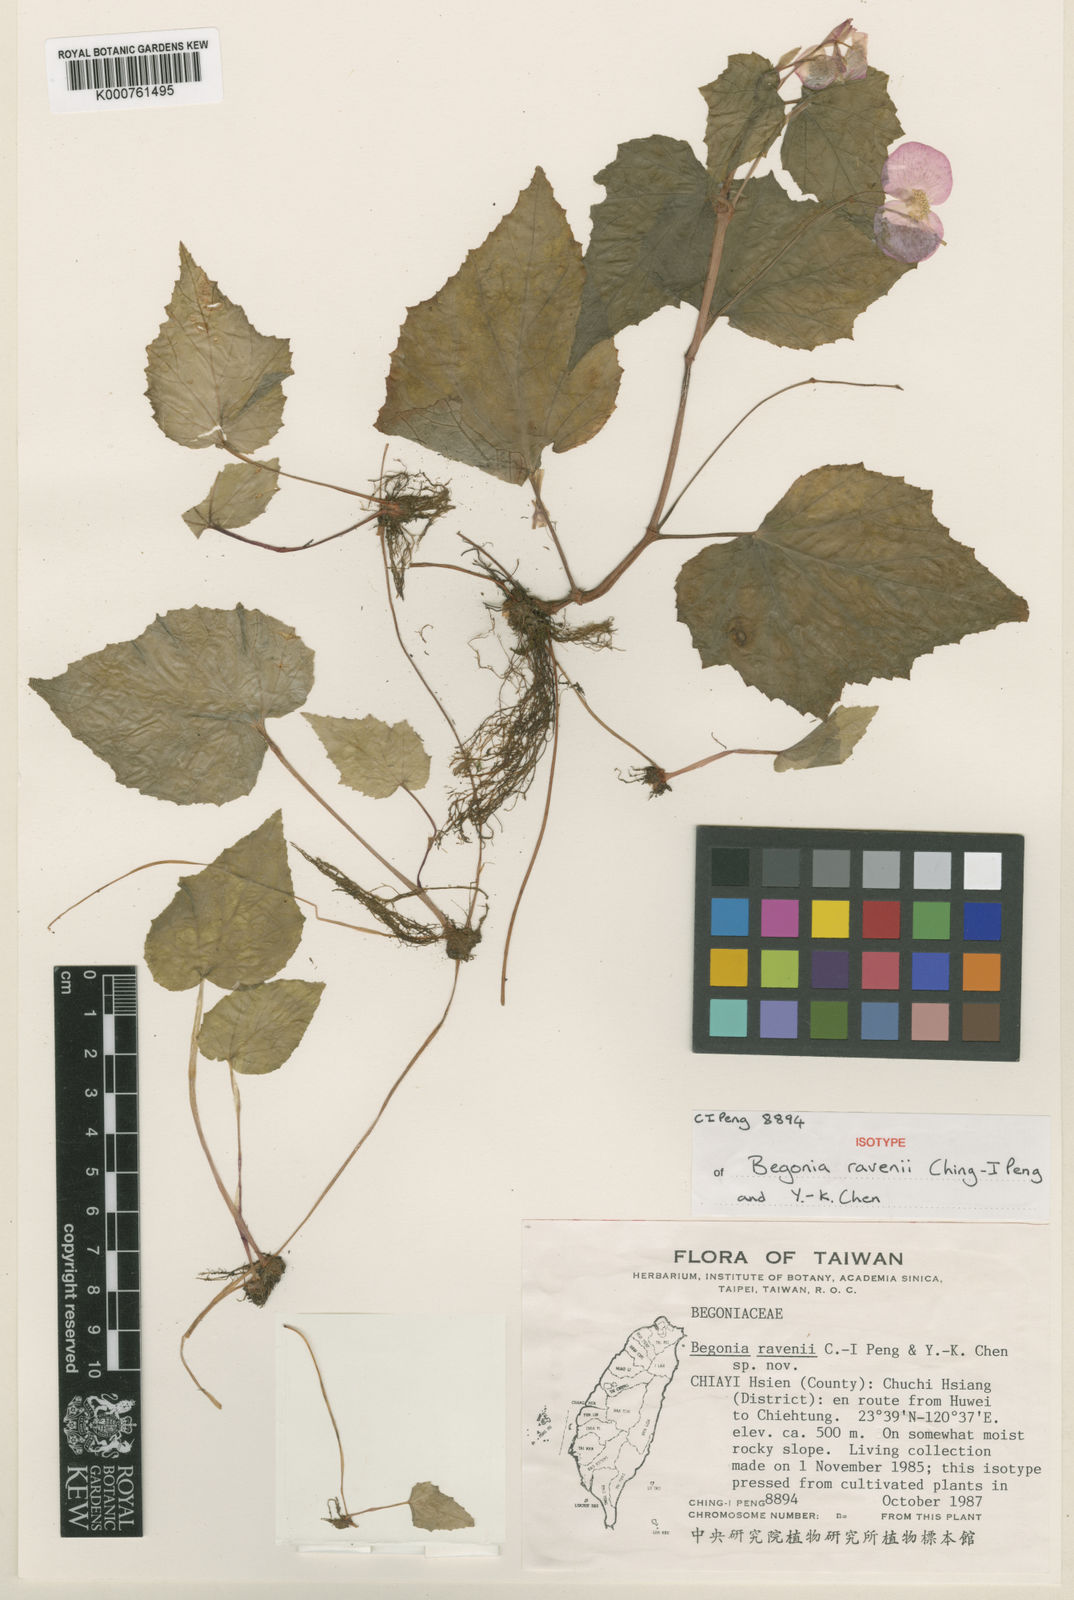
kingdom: Plantae
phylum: Tracheophyta
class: Magnoliopsida
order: Cucurbitales
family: Begoniaceae
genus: Begonia
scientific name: Begonia ravenii
